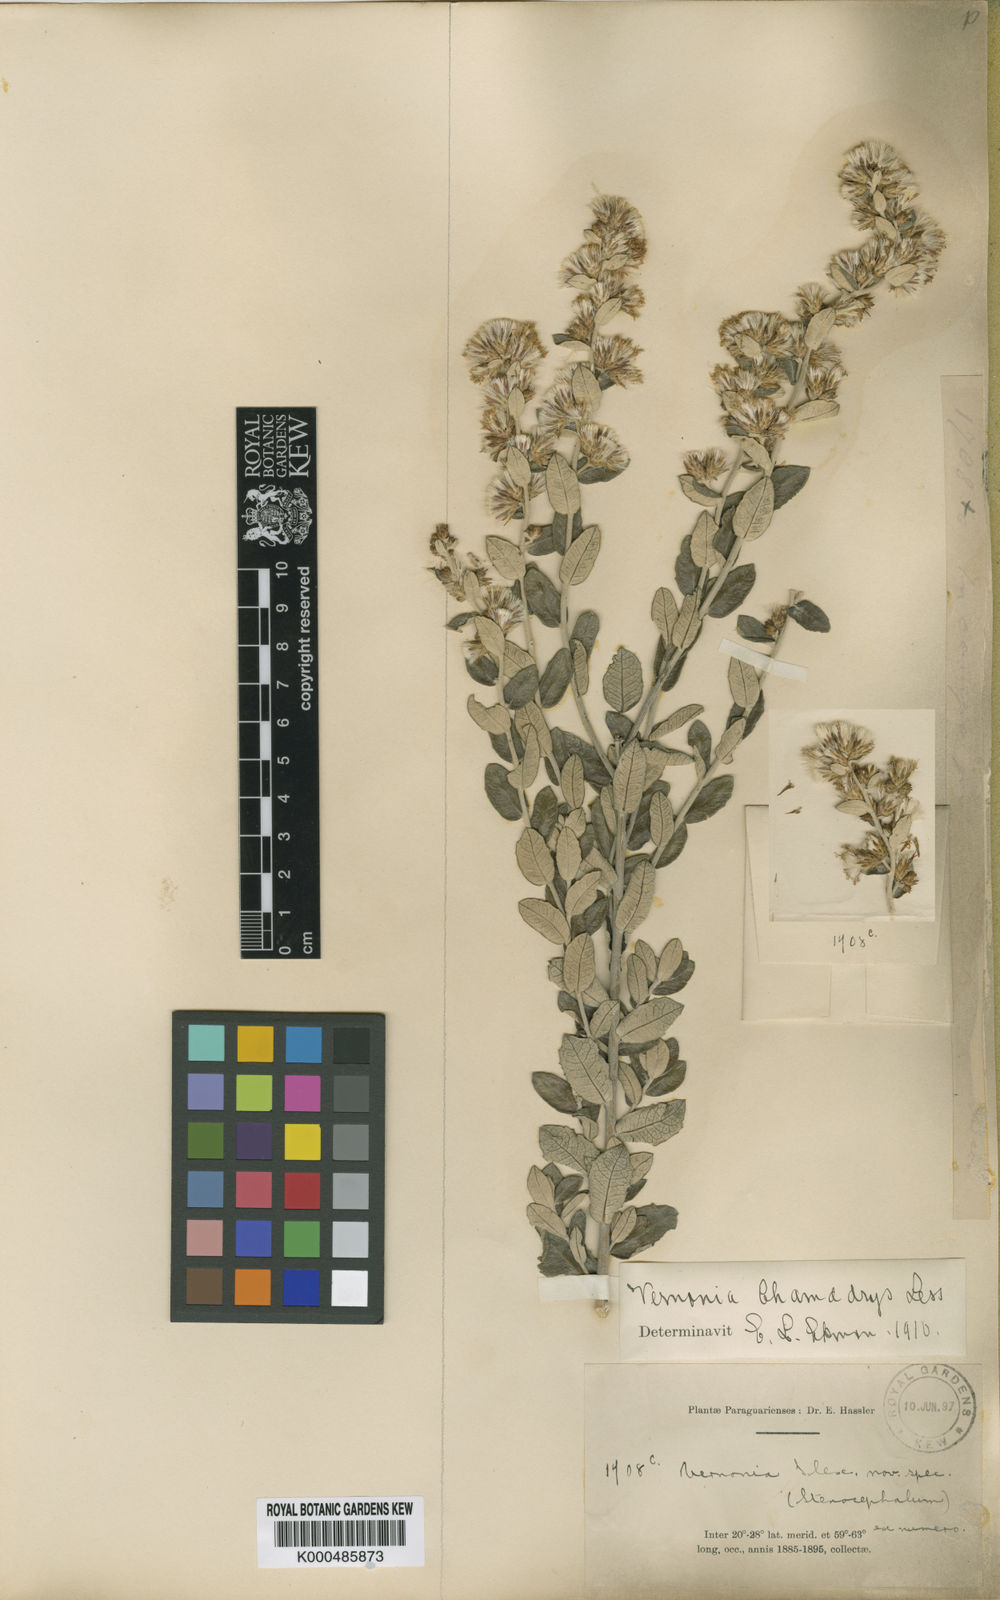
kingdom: Plantae
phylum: Tracheophyta
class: Magnoliopsida
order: Asterales
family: Asteraceae
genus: Vernonanthura
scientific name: Vernonanthura chamaedrys
